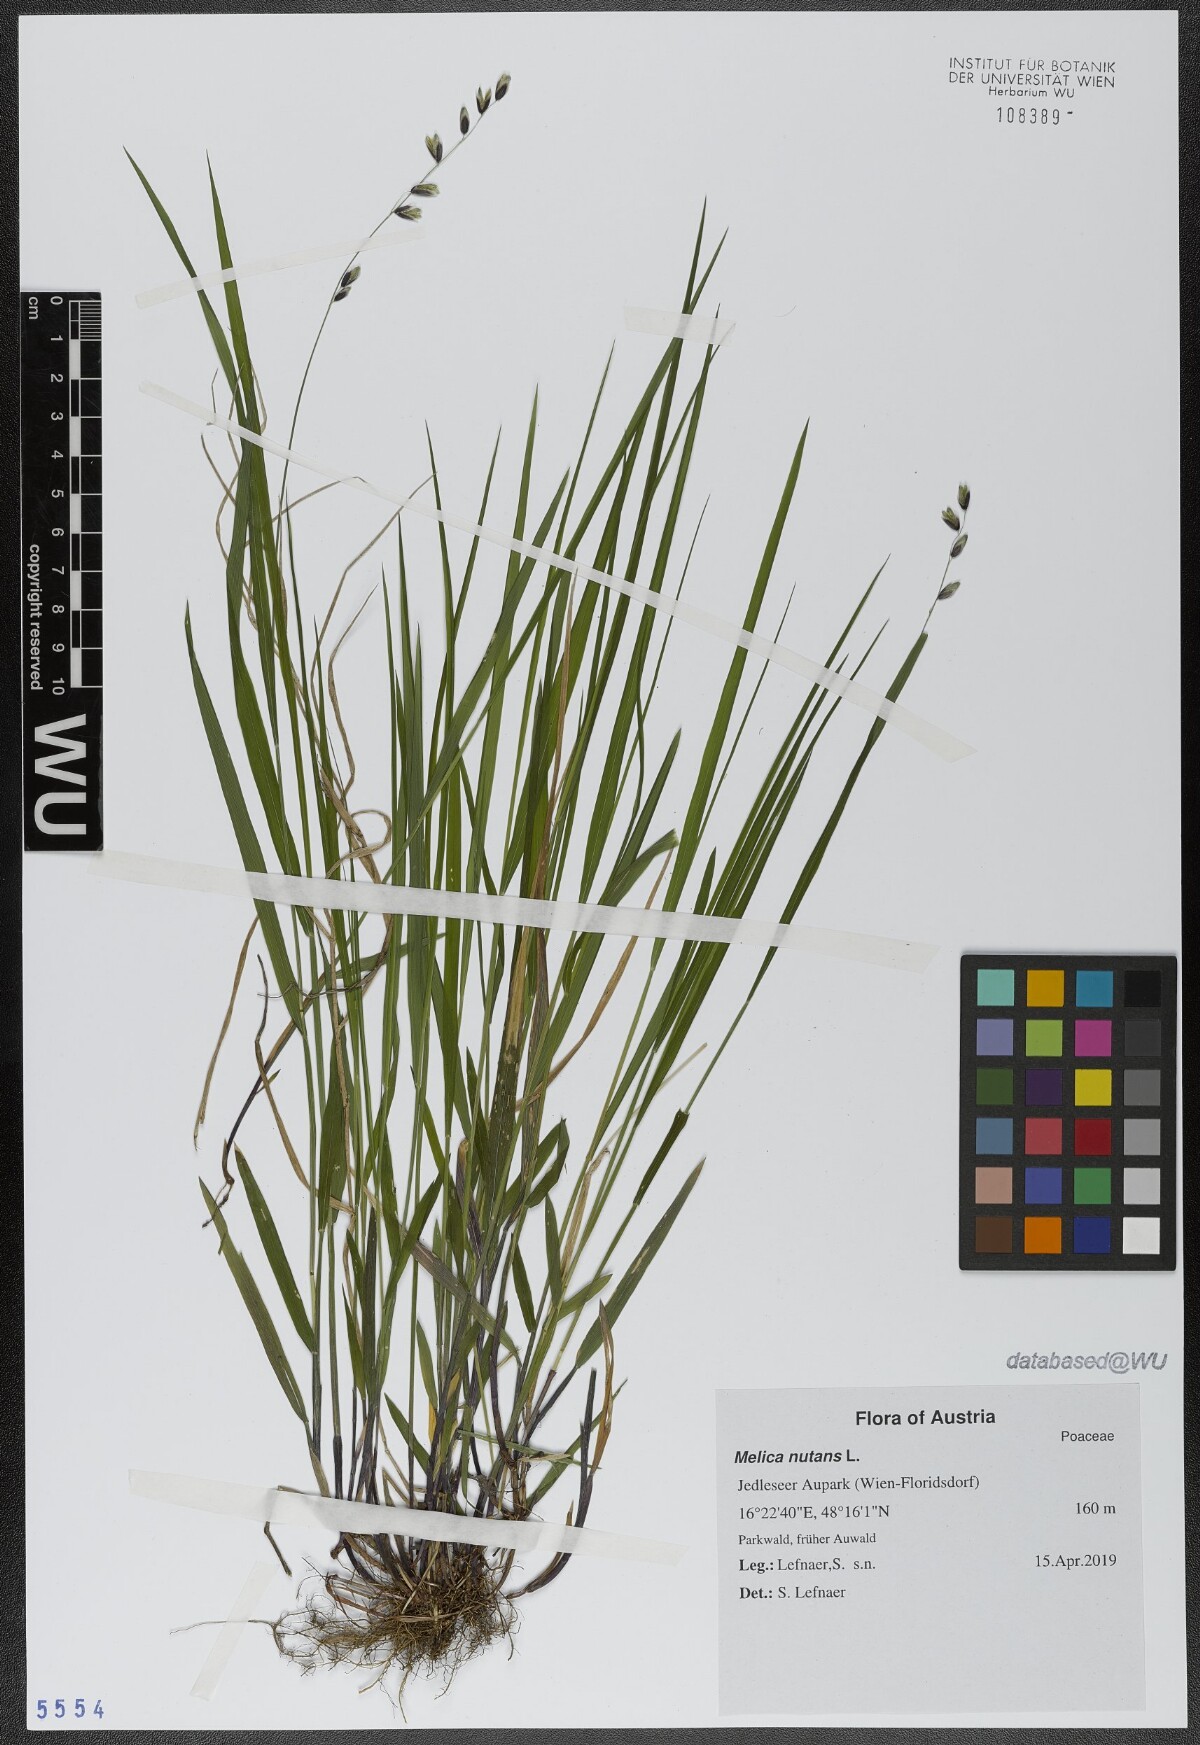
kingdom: Plantae
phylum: Tracheophyta
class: Liliopsida
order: Poales
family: Poaceae
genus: Melica
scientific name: Melica nutans
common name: Mountain melick
